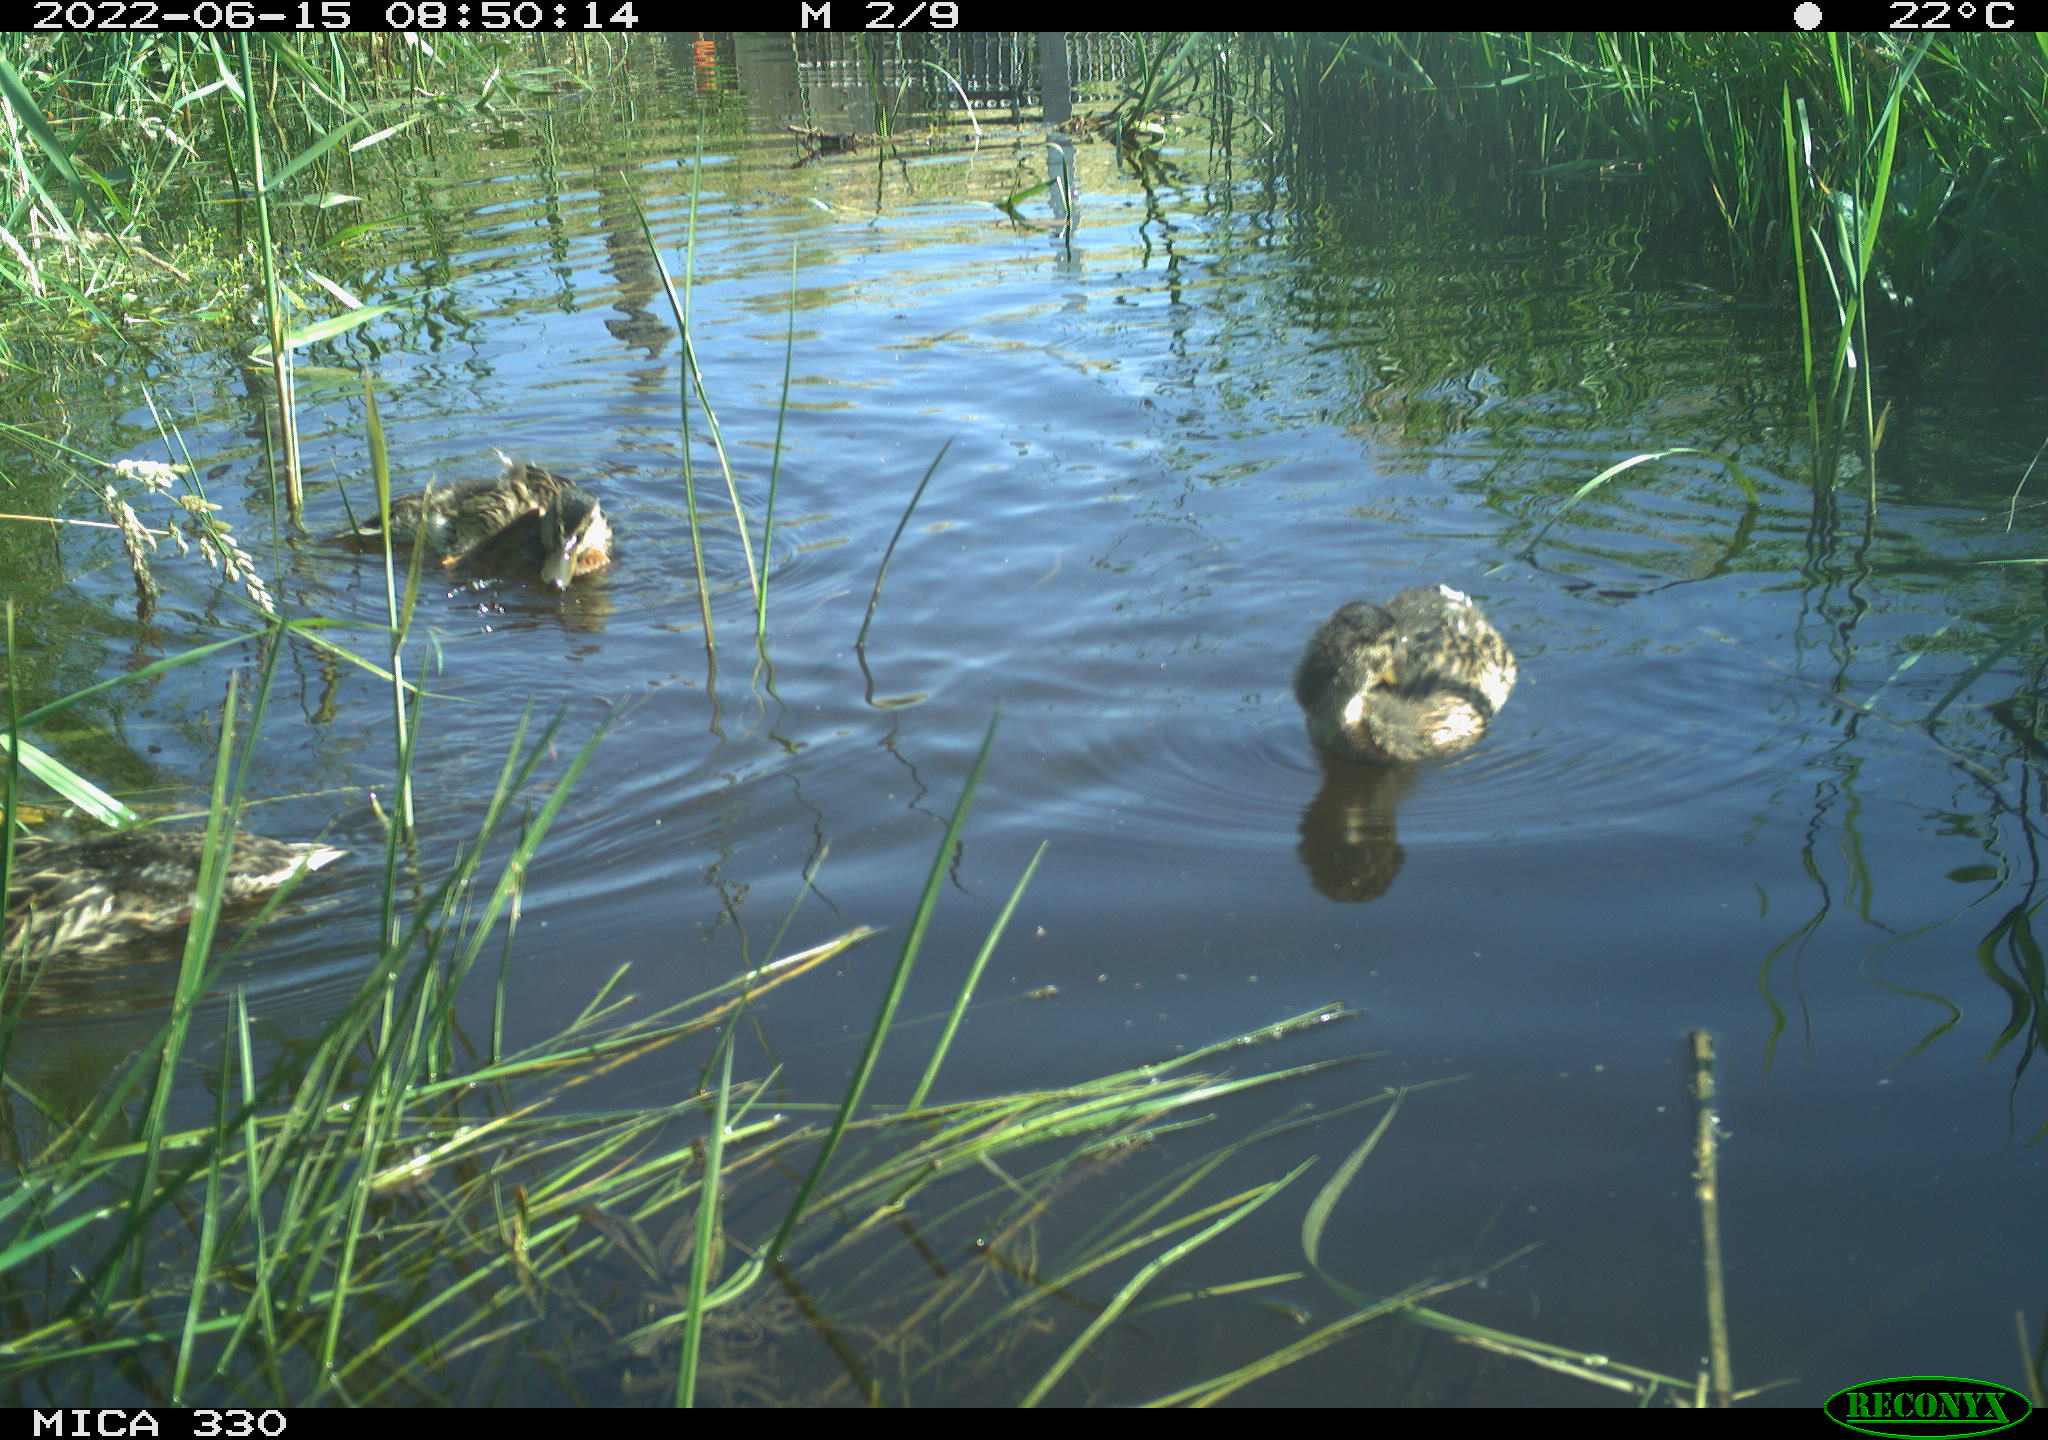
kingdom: Animalia
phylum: Chordata
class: Aves
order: Anseriformes
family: Anatidae
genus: Mareca
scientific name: Mareca strepera
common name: Gadwall
